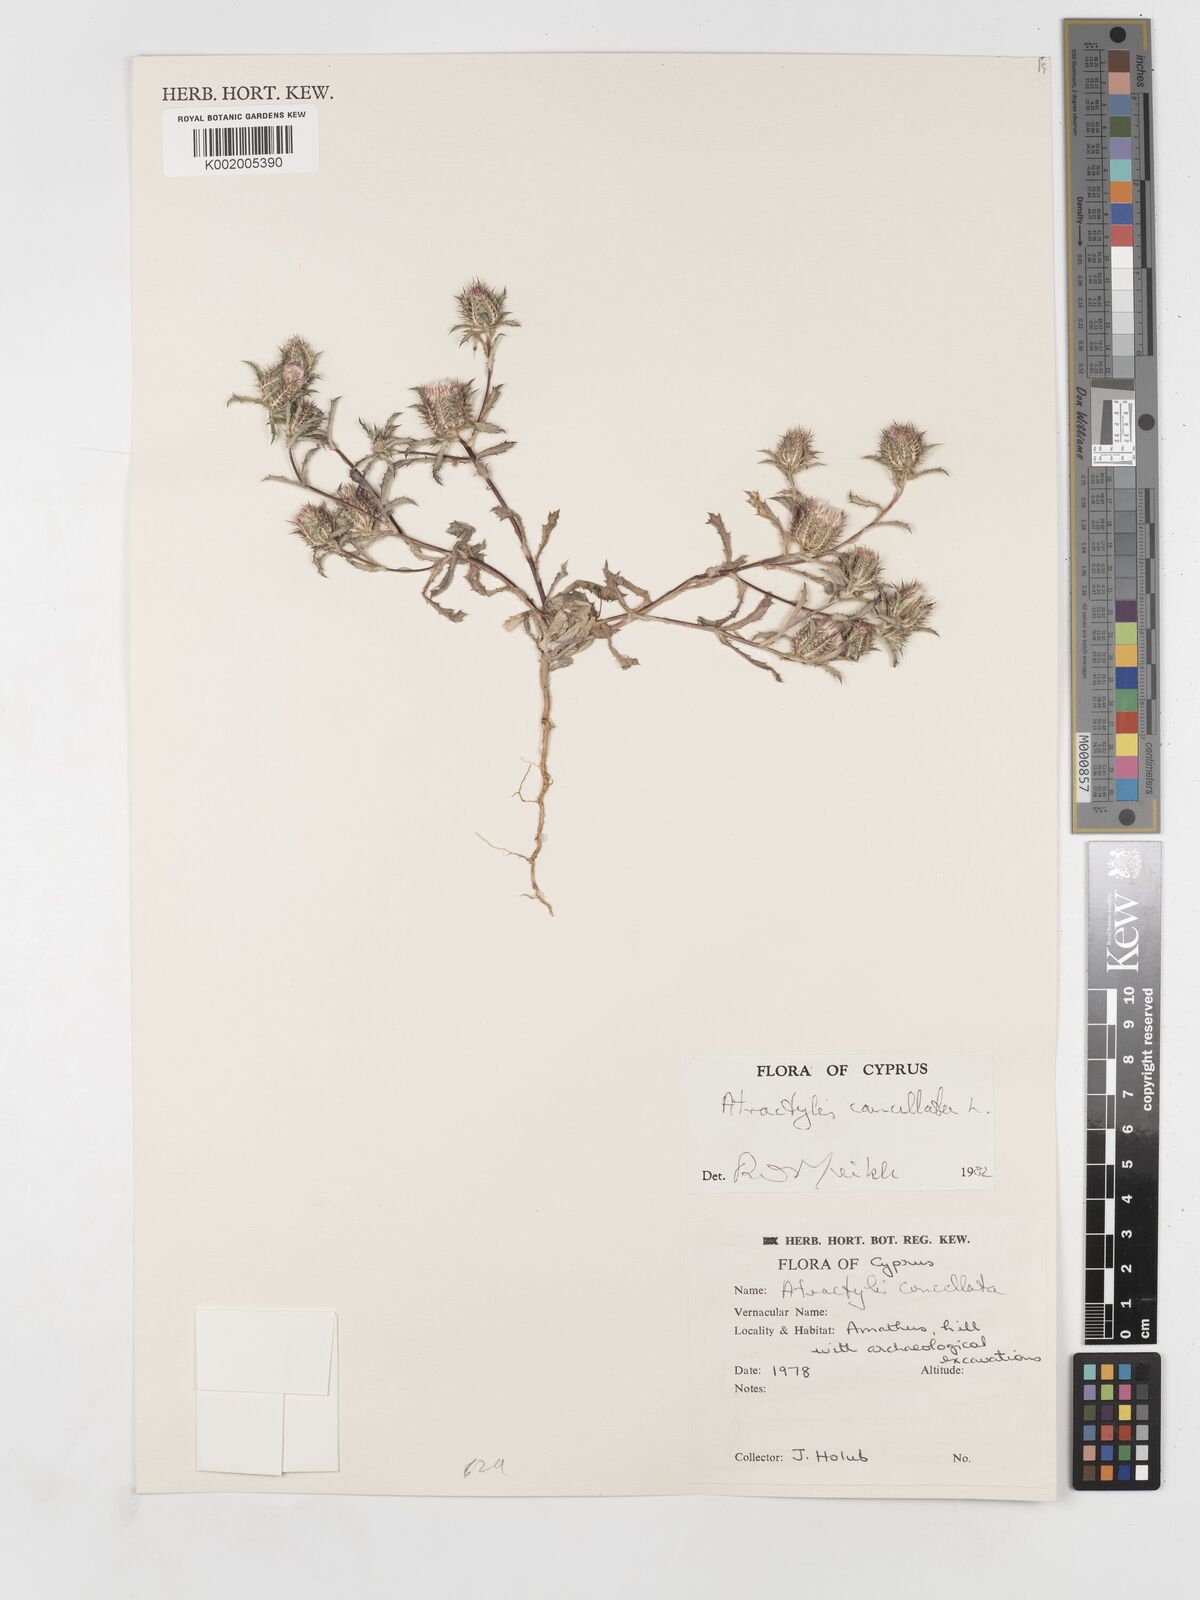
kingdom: Plantae
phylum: Tracheophyta
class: Magnoliopsida
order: Asterales
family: Asteraceae
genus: Atractylis
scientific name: Atractylis cancellata
